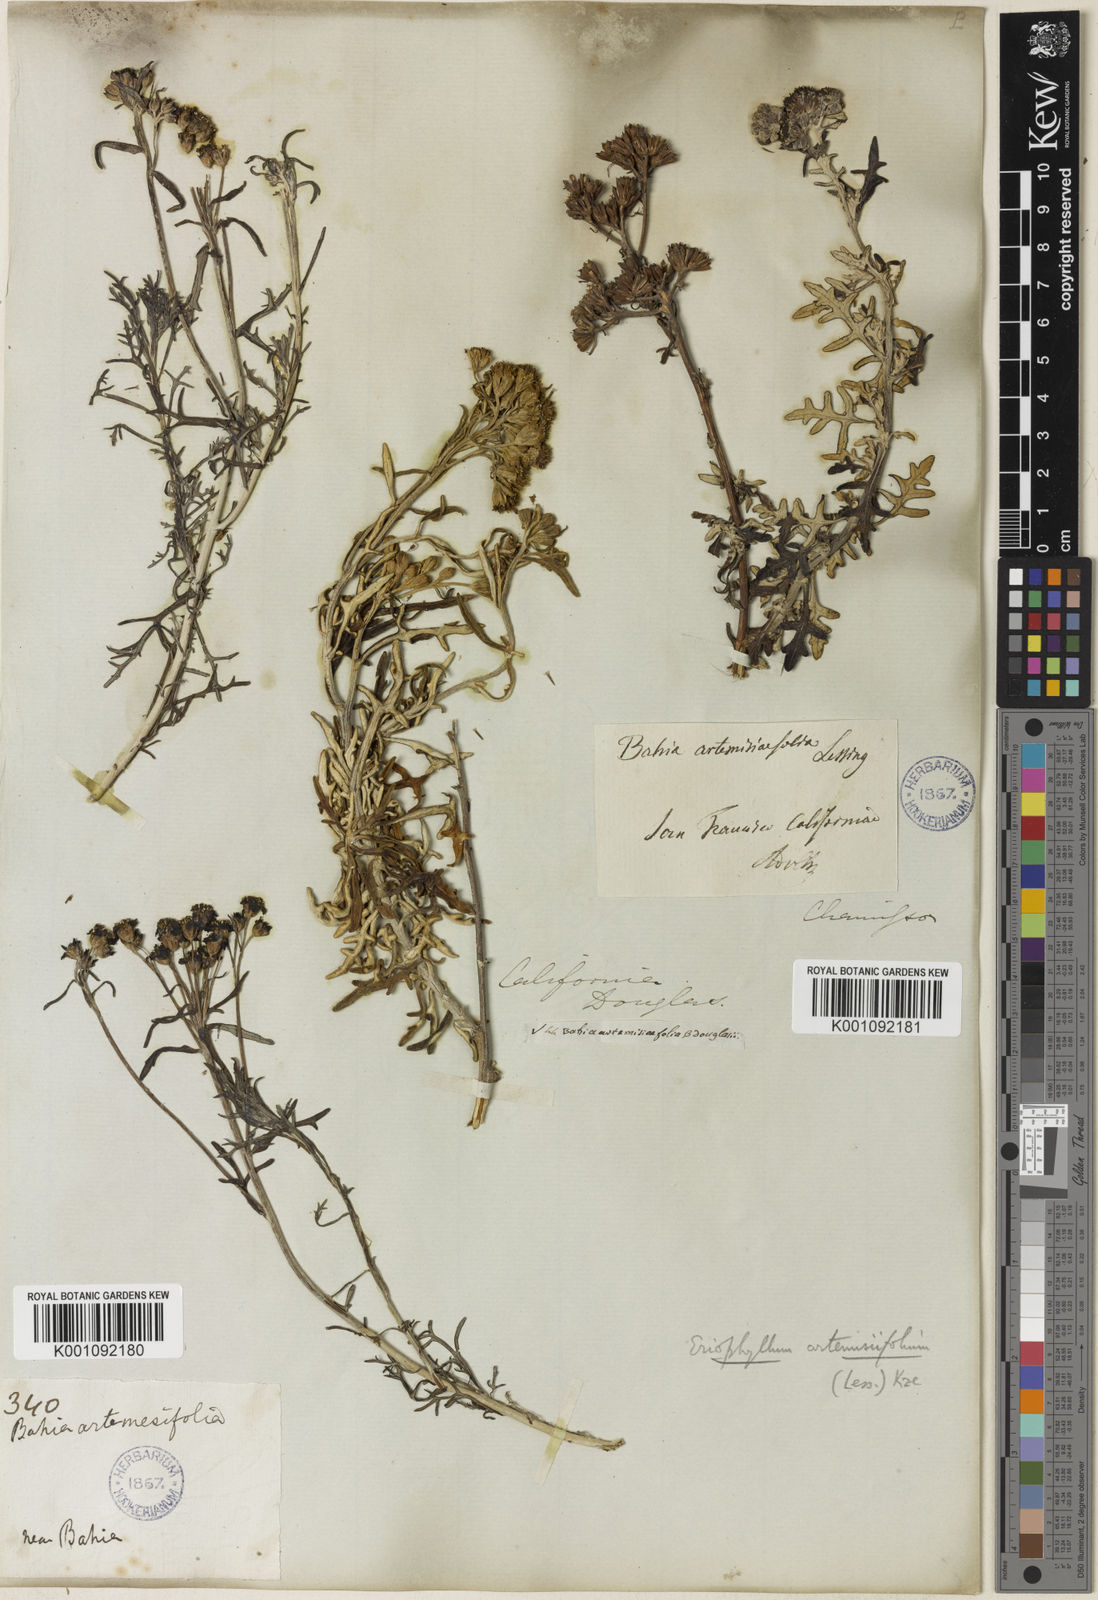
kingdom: Plantae
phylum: Tracheophyta
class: Magnoliopsida
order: Asterales
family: Asteraceae
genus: Eriophyllum
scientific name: Eriophyllum staechadifolium
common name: Lizardtail
